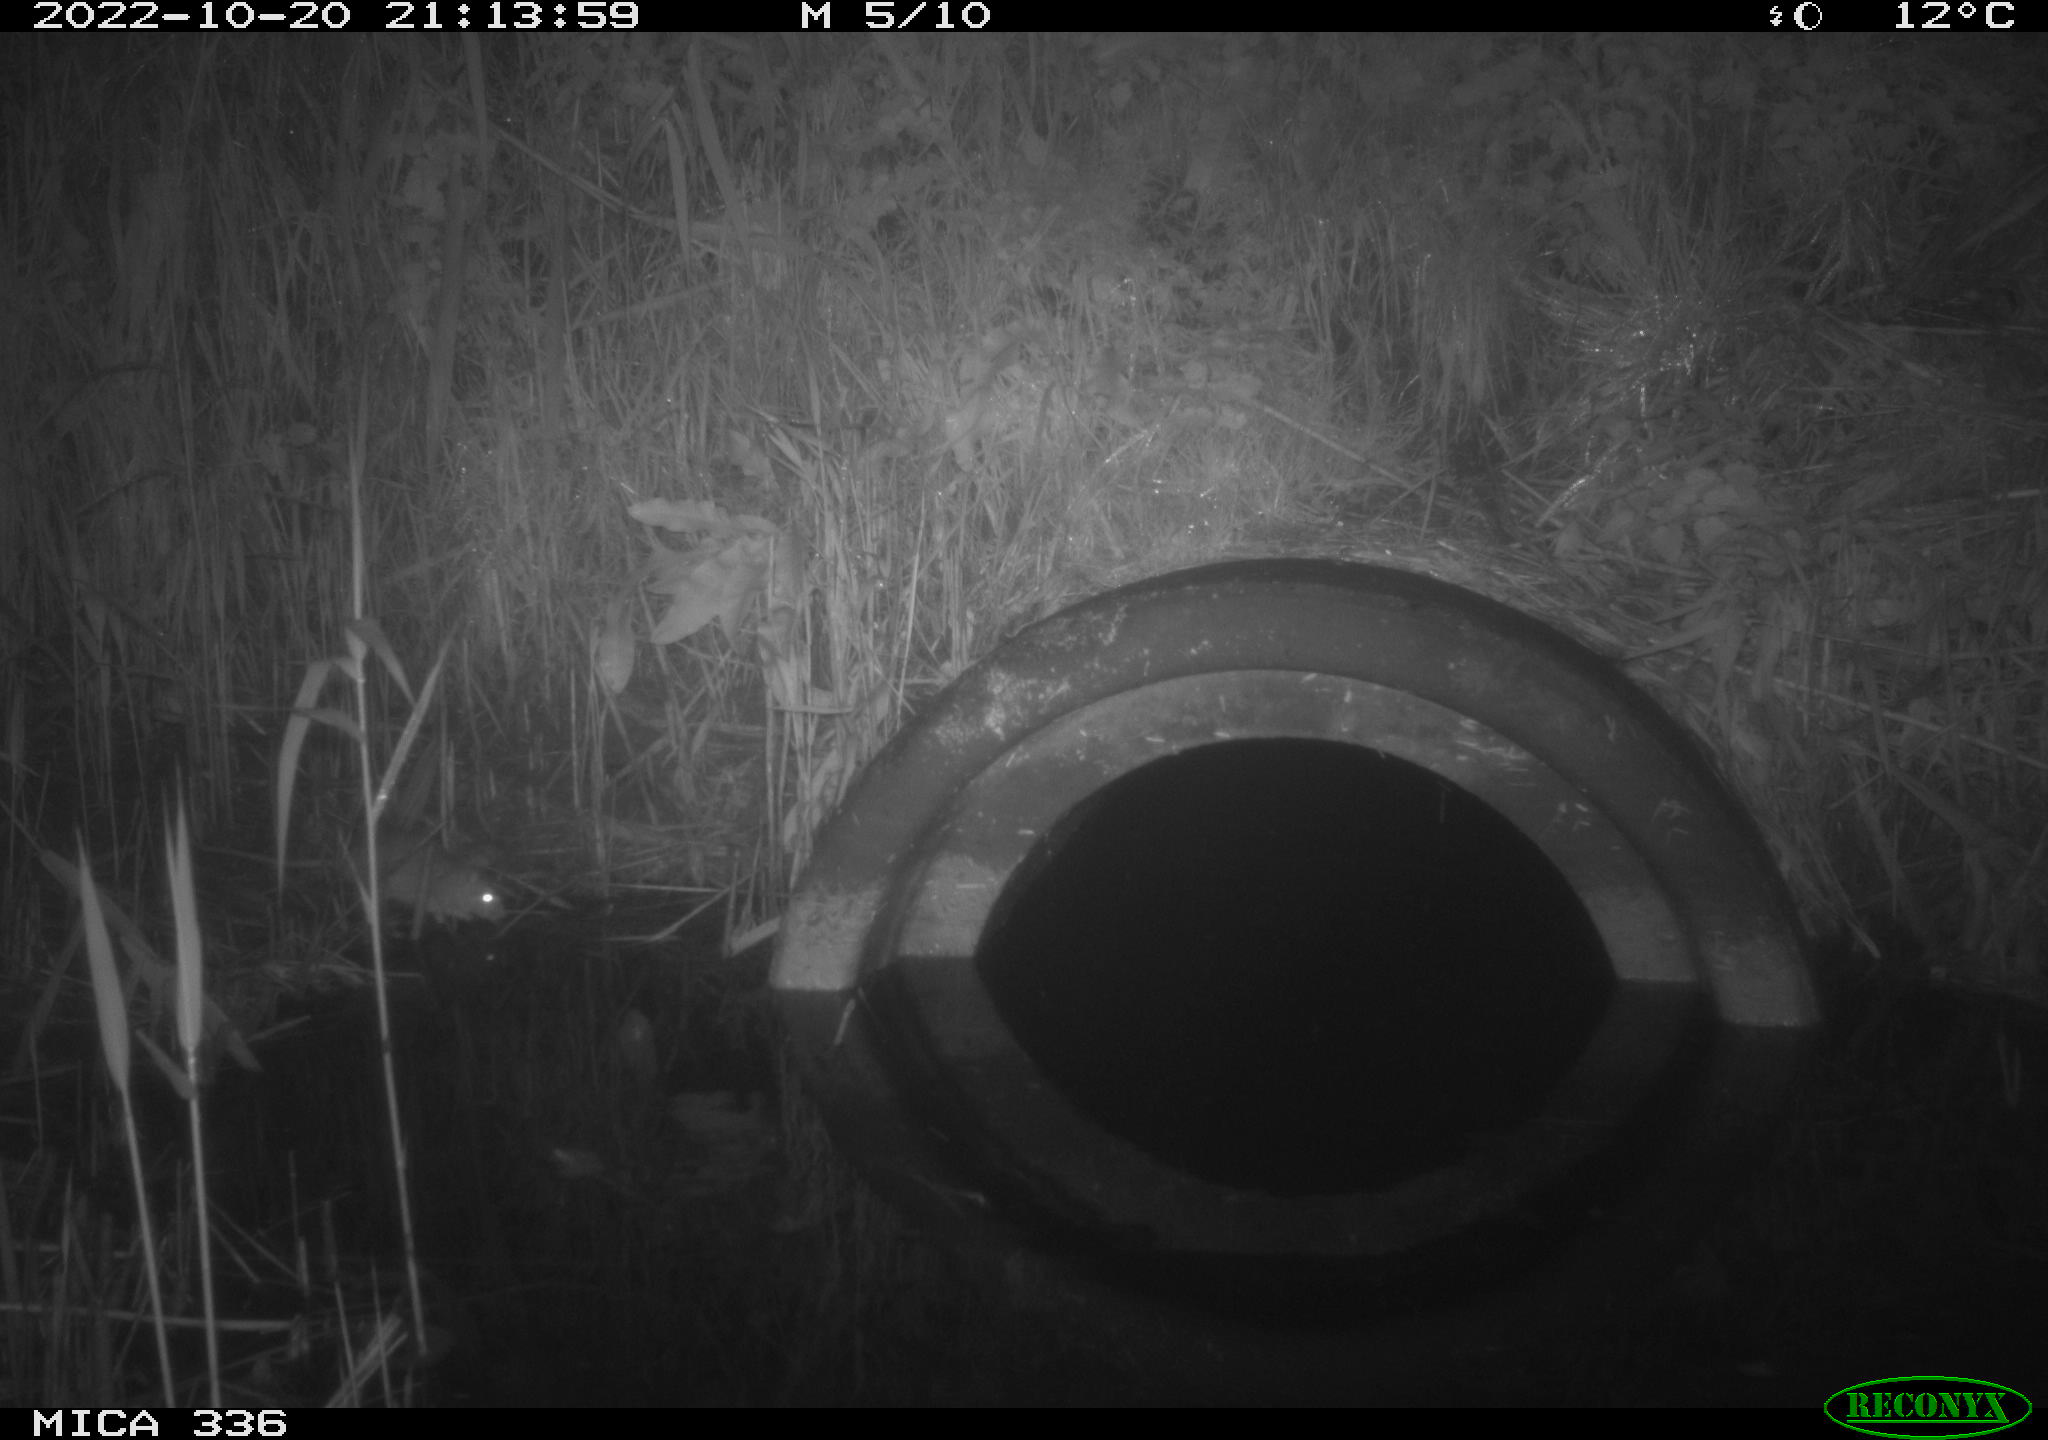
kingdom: Animalia
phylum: Chordata
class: Mammalia
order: Rodentia
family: Muridae
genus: Rattus
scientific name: Rattus norvegicus
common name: Brown rat
